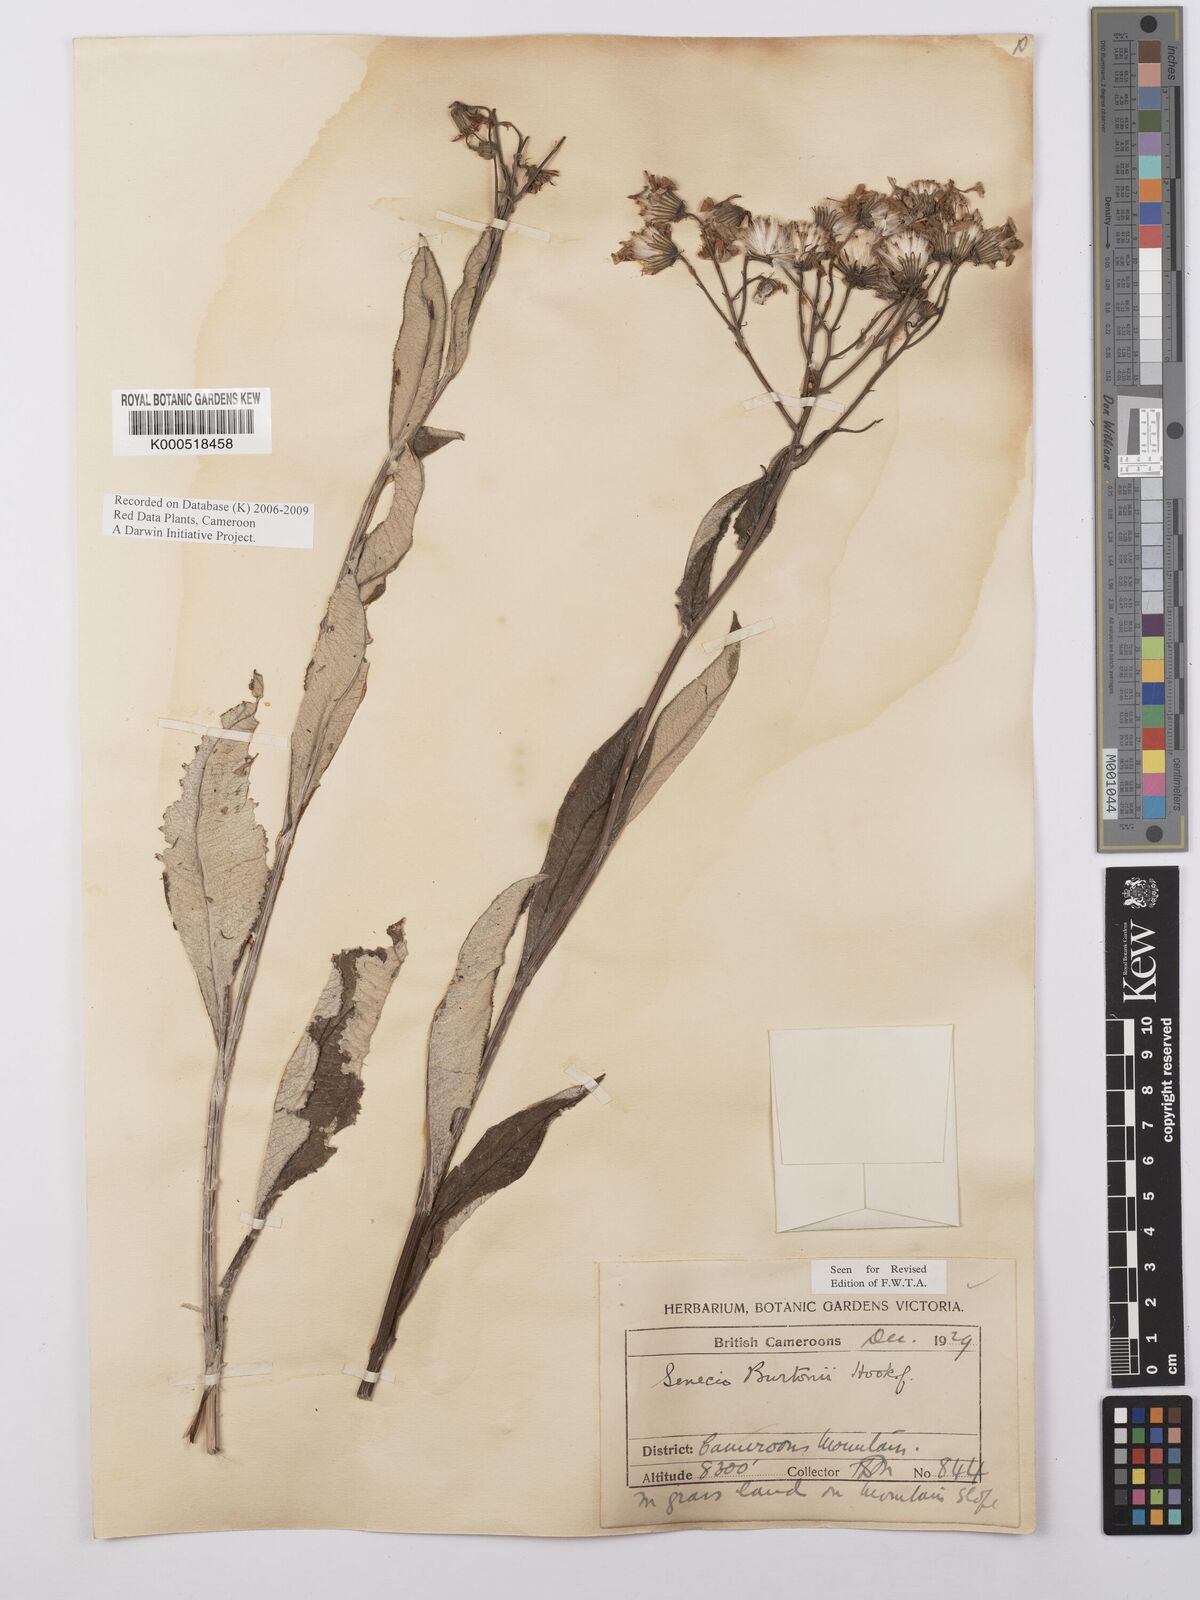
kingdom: Plantae
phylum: Tracheophyta
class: Magnoliopsida
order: Asterales
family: Asteraceae
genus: Senecio
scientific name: Senecio burtonii
